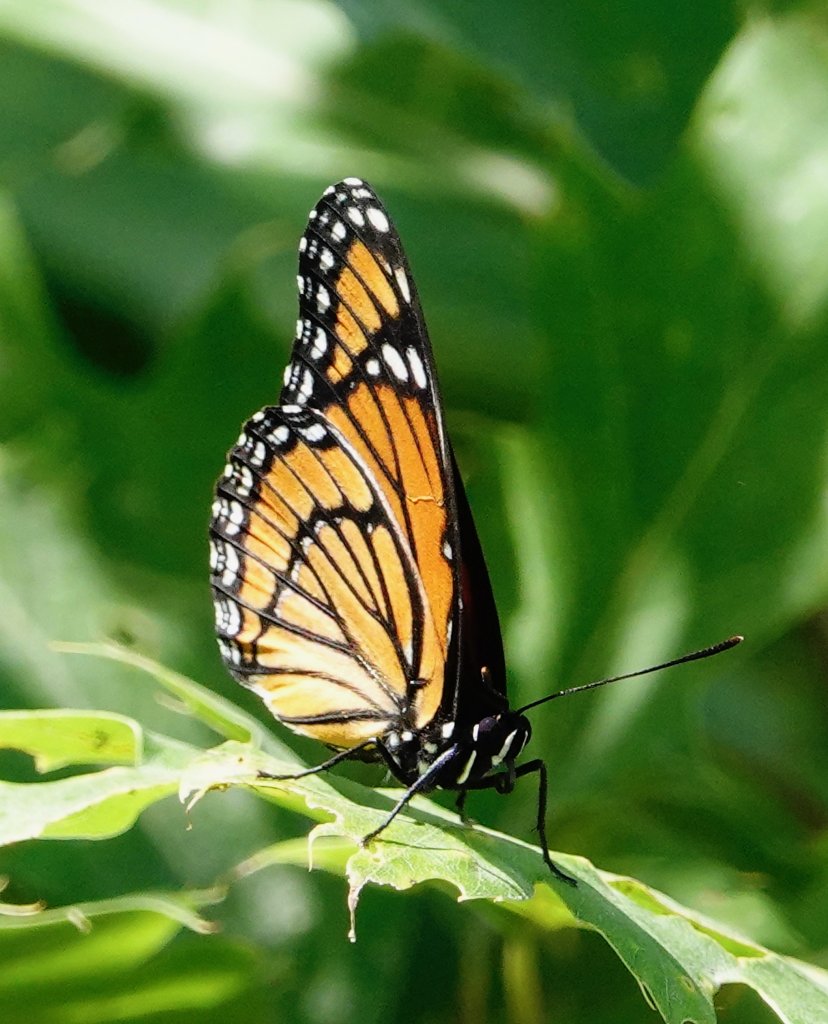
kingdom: Animalia
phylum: Arthropoda
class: Insecta
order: Lepidoptera
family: Nymphalidae
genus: Limenitis
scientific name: Limenitis archippus
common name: Viceroy
